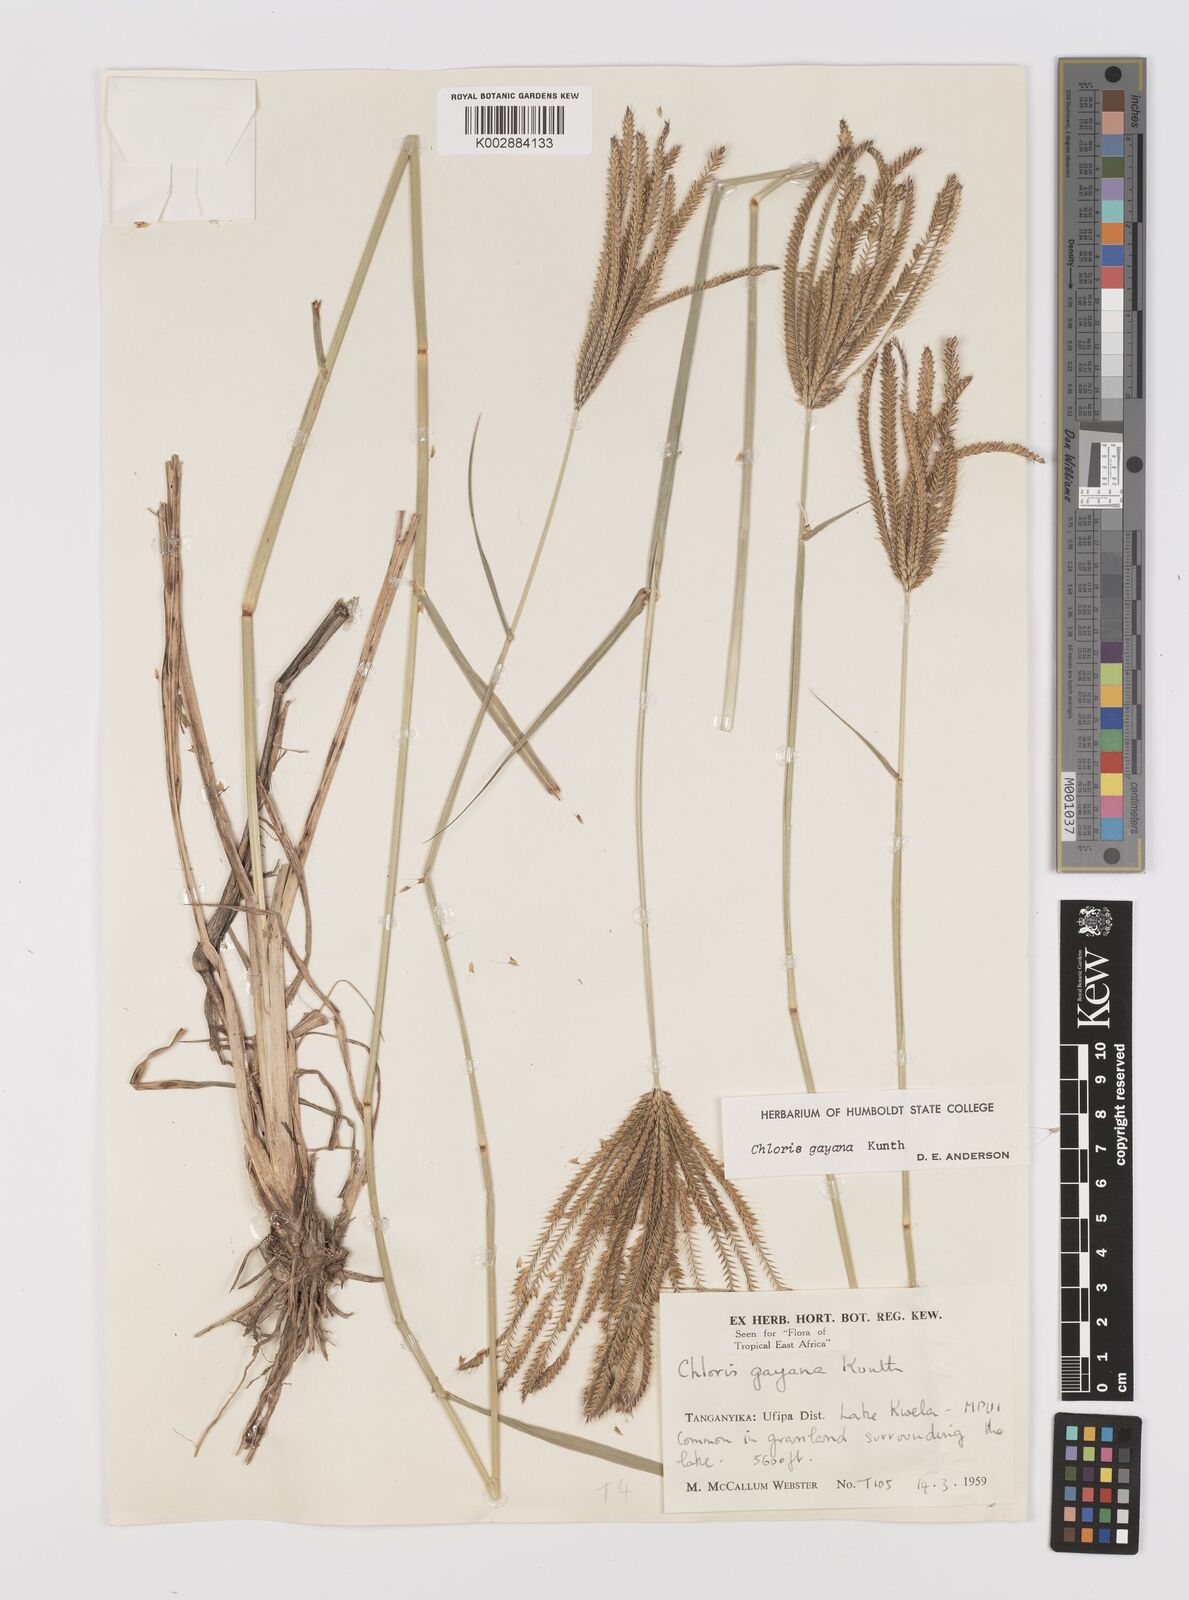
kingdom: Plantae
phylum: Tracheophyta
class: Liliopsida
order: Poales
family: Poaceae
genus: Chloris
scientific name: Chloris gayana
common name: Rhodes grass
